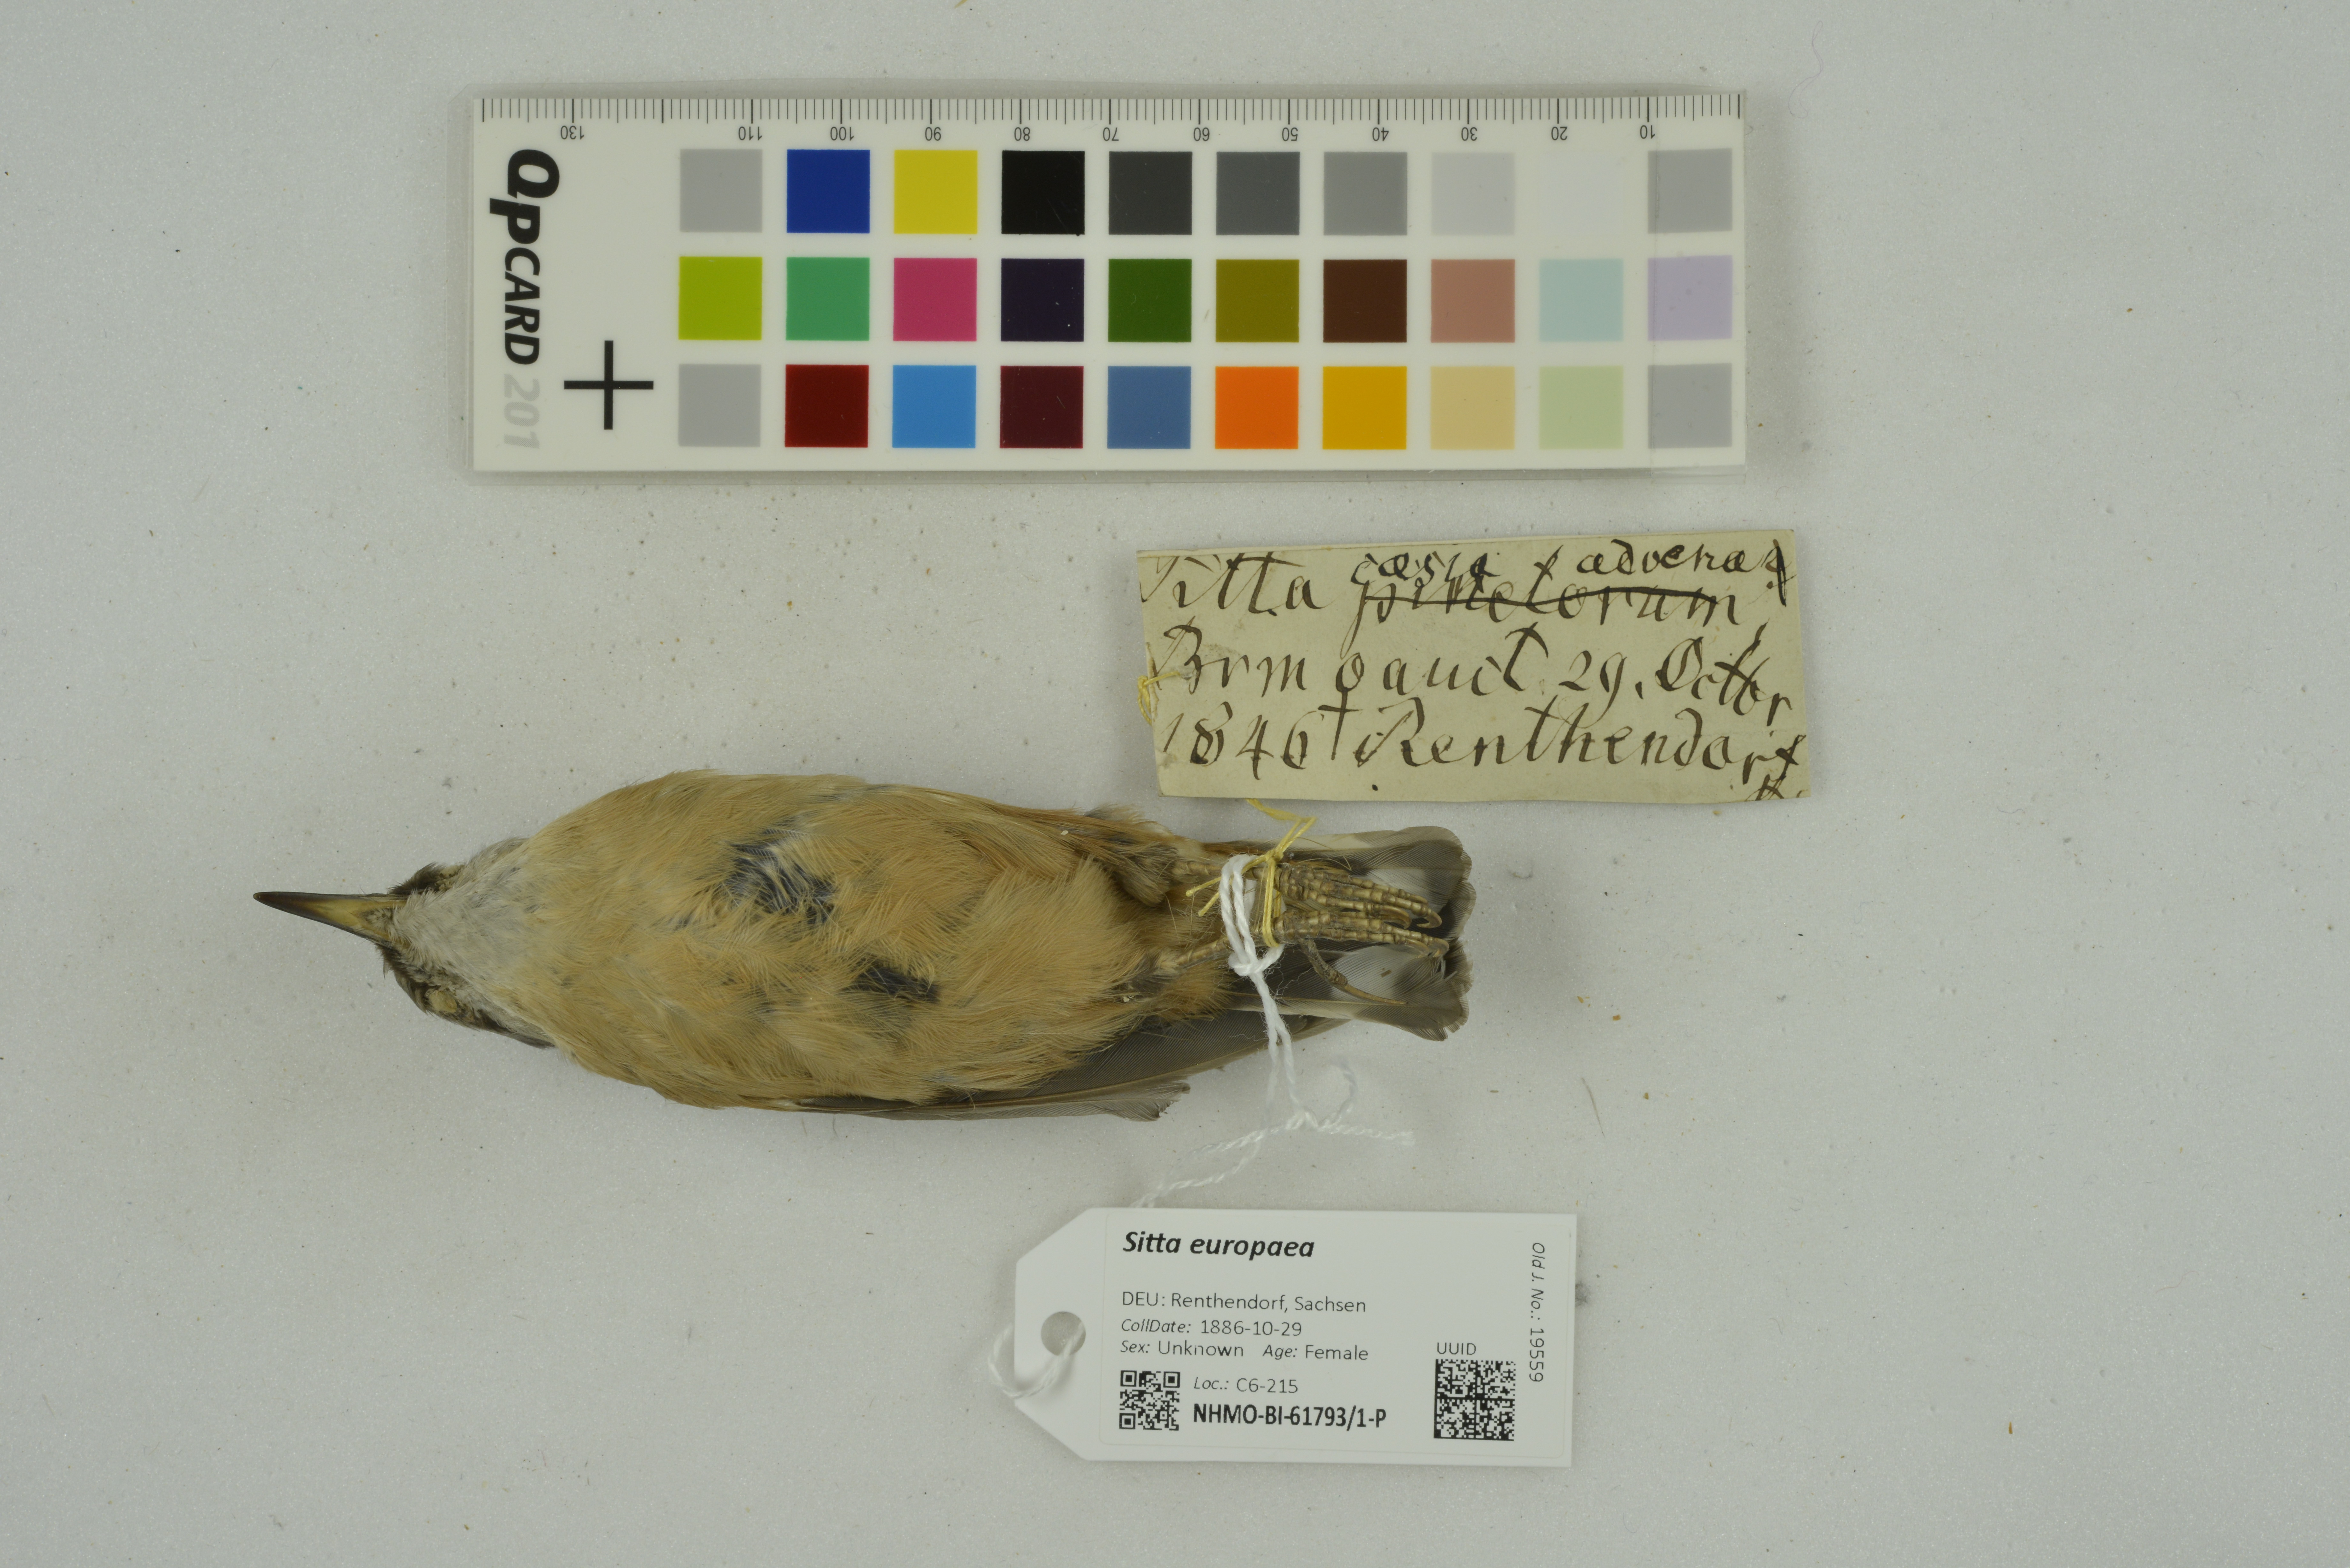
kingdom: Animalia
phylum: Chordata
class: Aves
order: Passeriformes
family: Sittidae
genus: Sitta
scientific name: Sitta europaea
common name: Eurasian nuthatch
